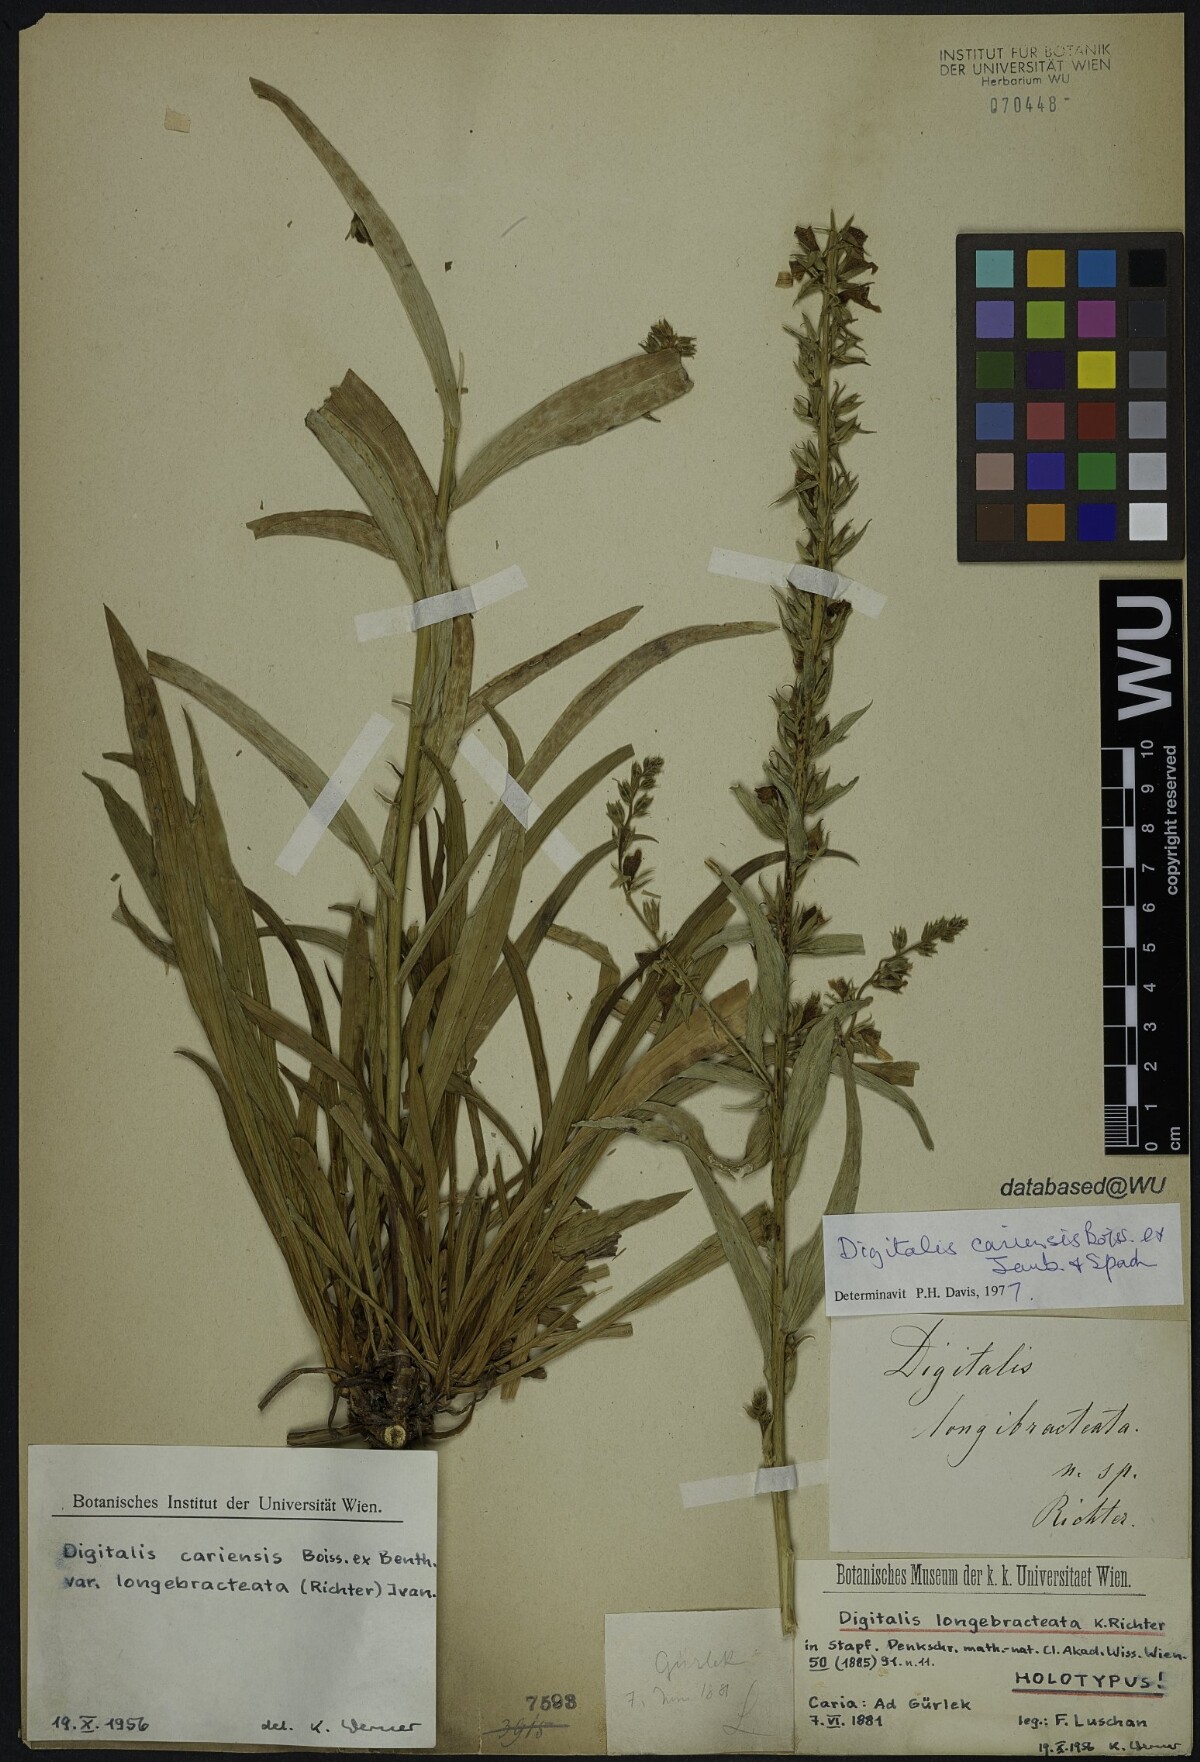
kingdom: Plantae
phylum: Tracheophyta
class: Magnoliopsida
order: Lamiales
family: Plantaginaceae
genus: Digitalis
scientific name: Digitalis longebracteata
